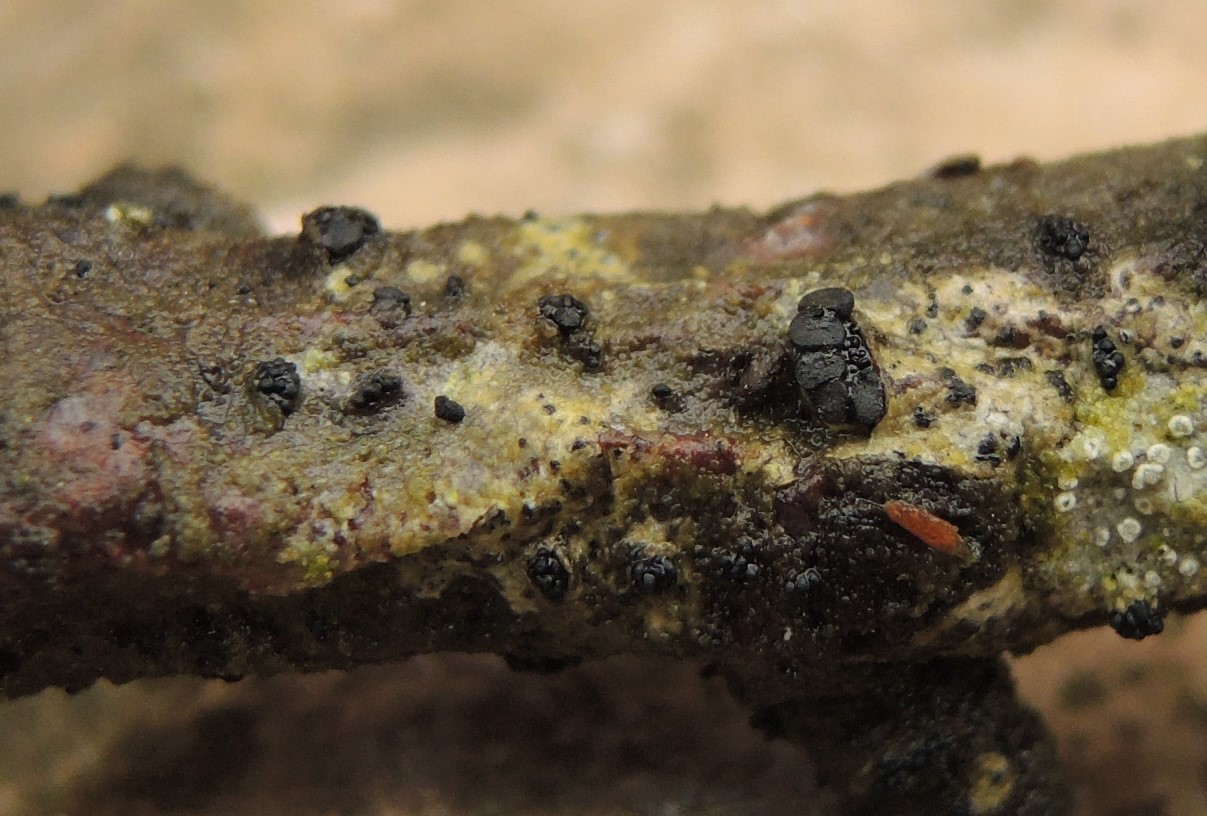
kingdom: Fungi
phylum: Ascomycota
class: Leotiomycetes
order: Leotiales
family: Tympanidaceae
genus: Tympanis
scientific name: Tympanis alnea
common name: almindelig knippeskive
